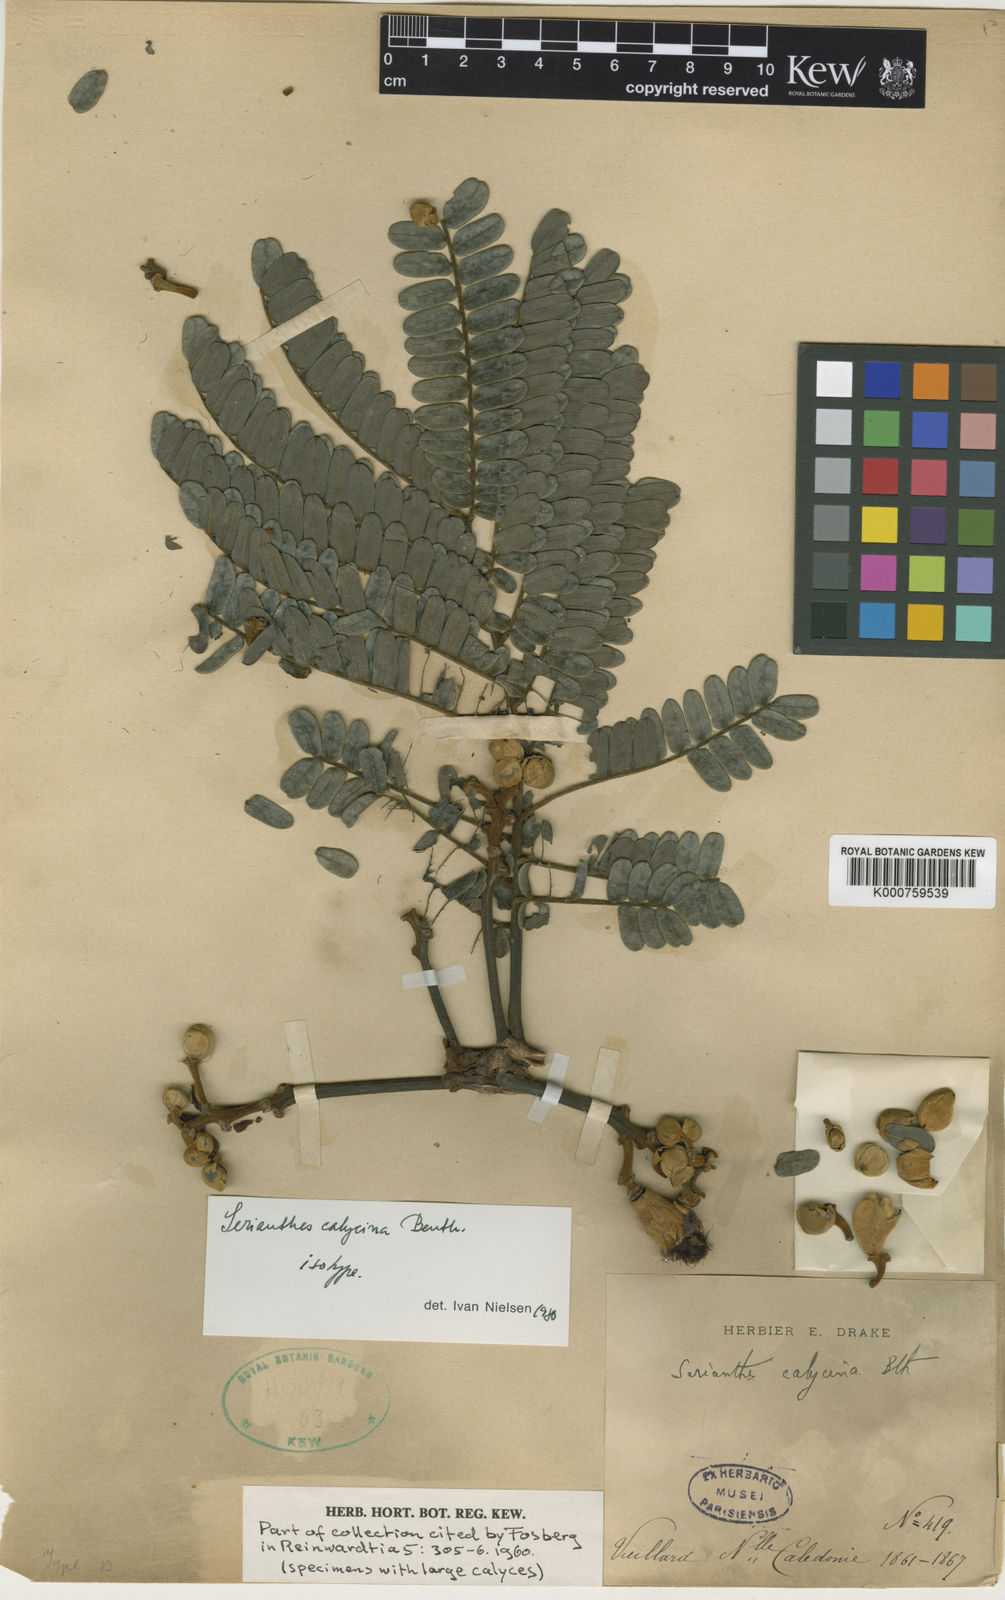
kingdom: Plantae
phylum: Tracheophyta
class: Magnoliopsida
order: Fabales
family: Fabaceae
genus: Serianthes
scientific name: Serianthes calycina
